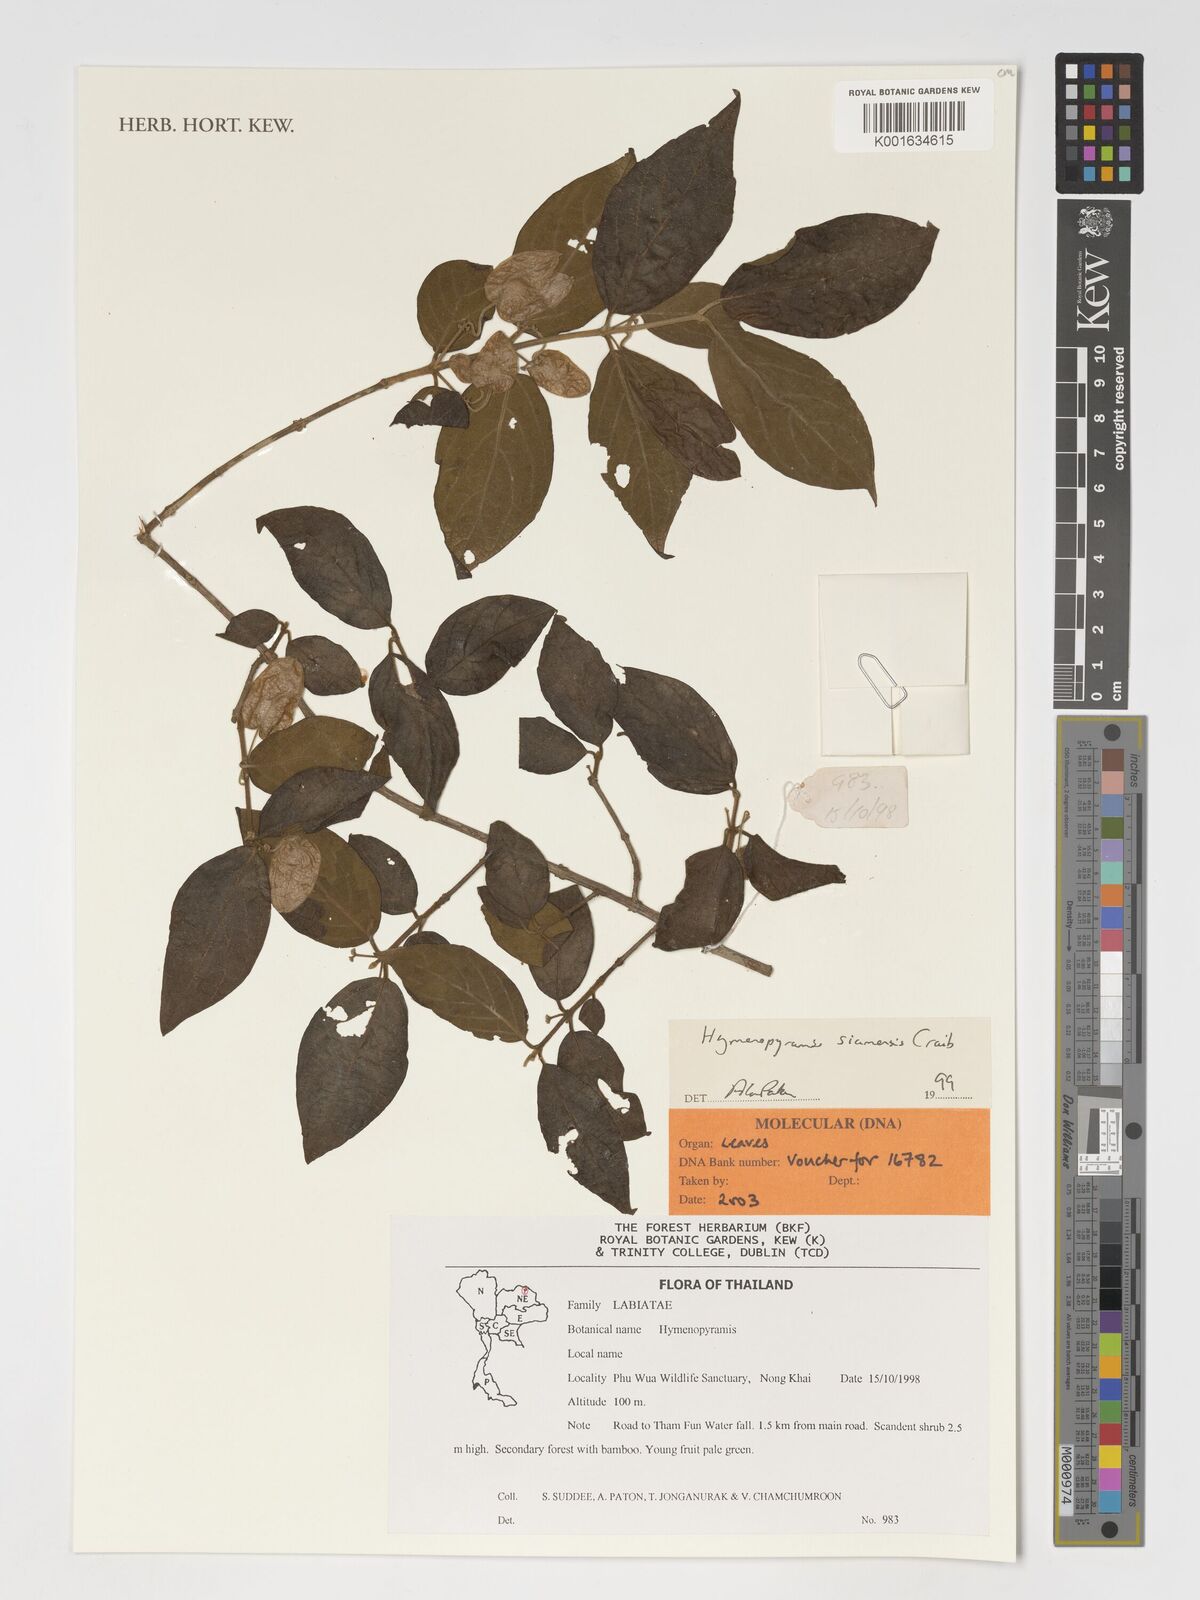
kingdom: Plantae
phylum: Tracheophyta
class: Magnoliopsida
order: Lamiales
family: Lamiaceae
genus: Hymenopyramis
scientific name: Hymenopyramis siamensis
